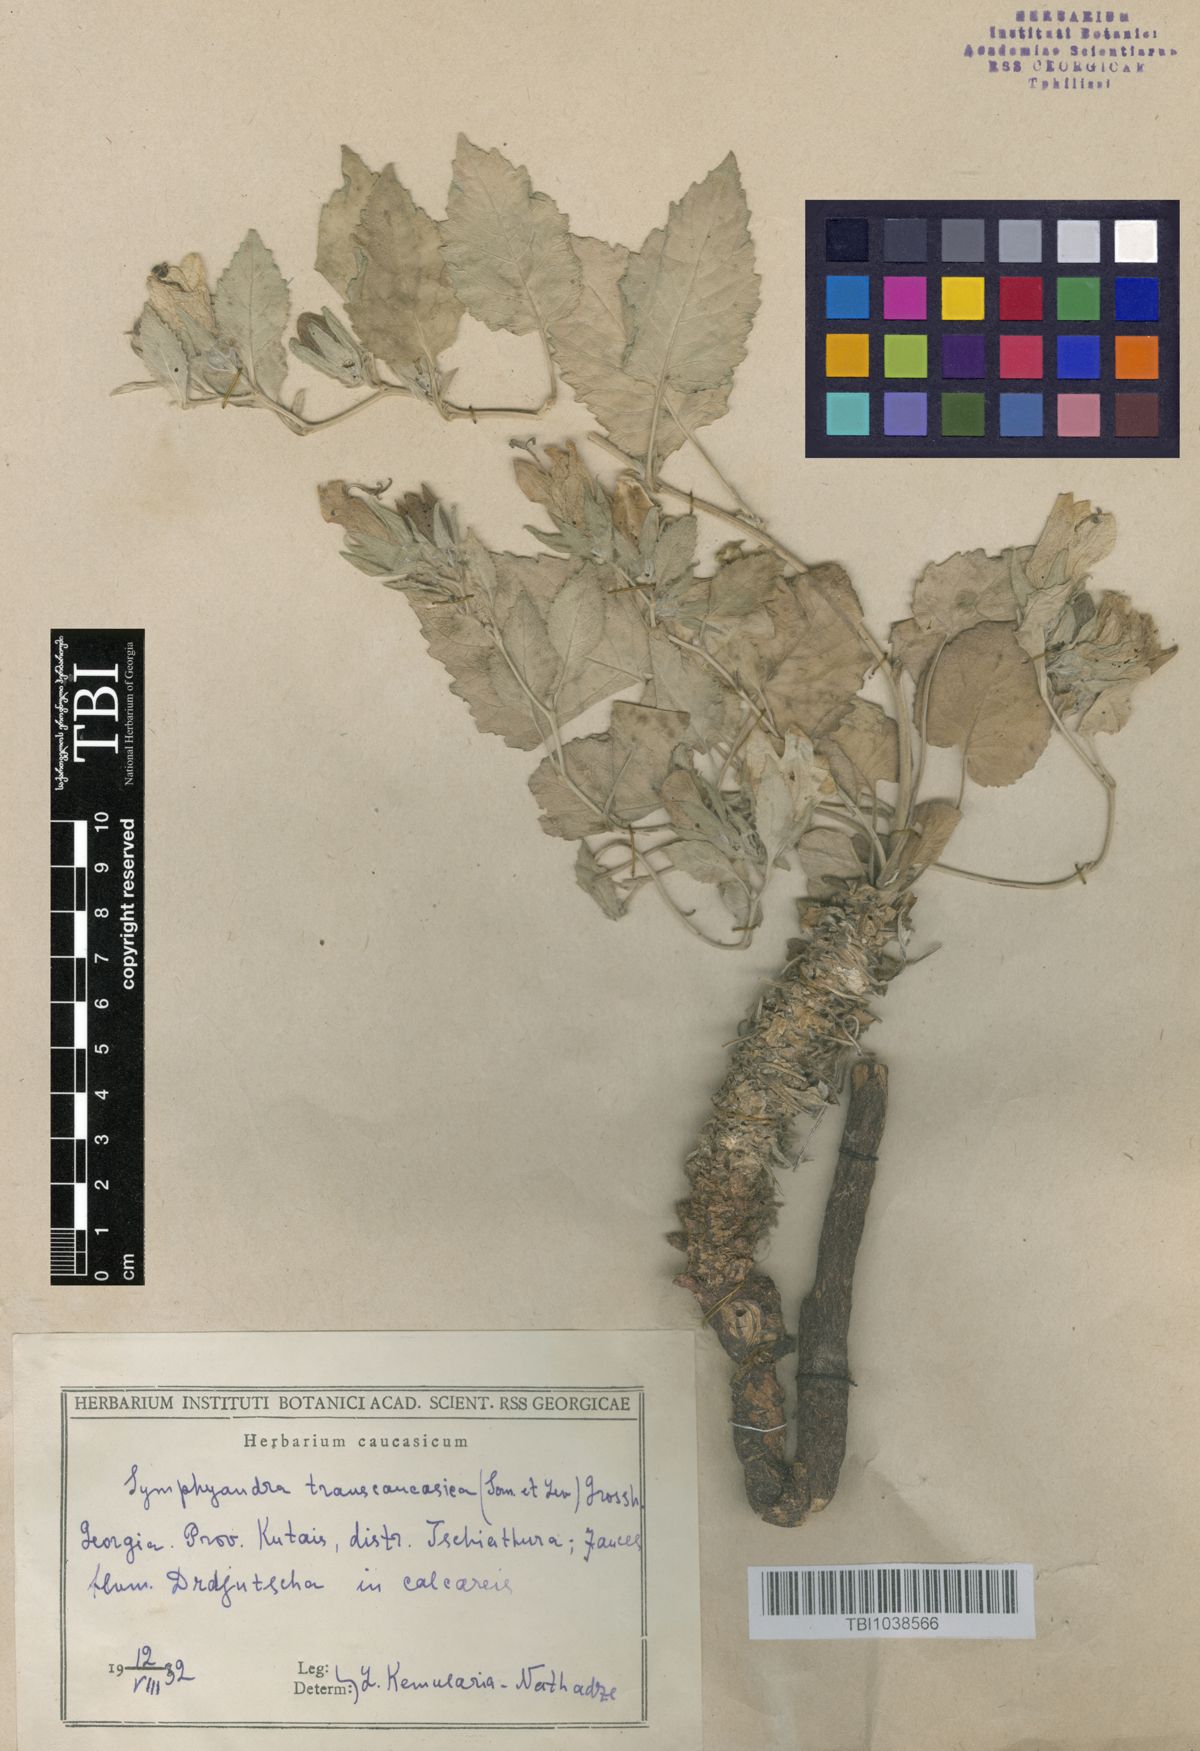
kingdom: Plantae
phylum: Tracheophyta
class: Magnoliopsida
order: Asterales
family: Campanulaceae
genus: Campanula
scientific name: Campanula pendula
